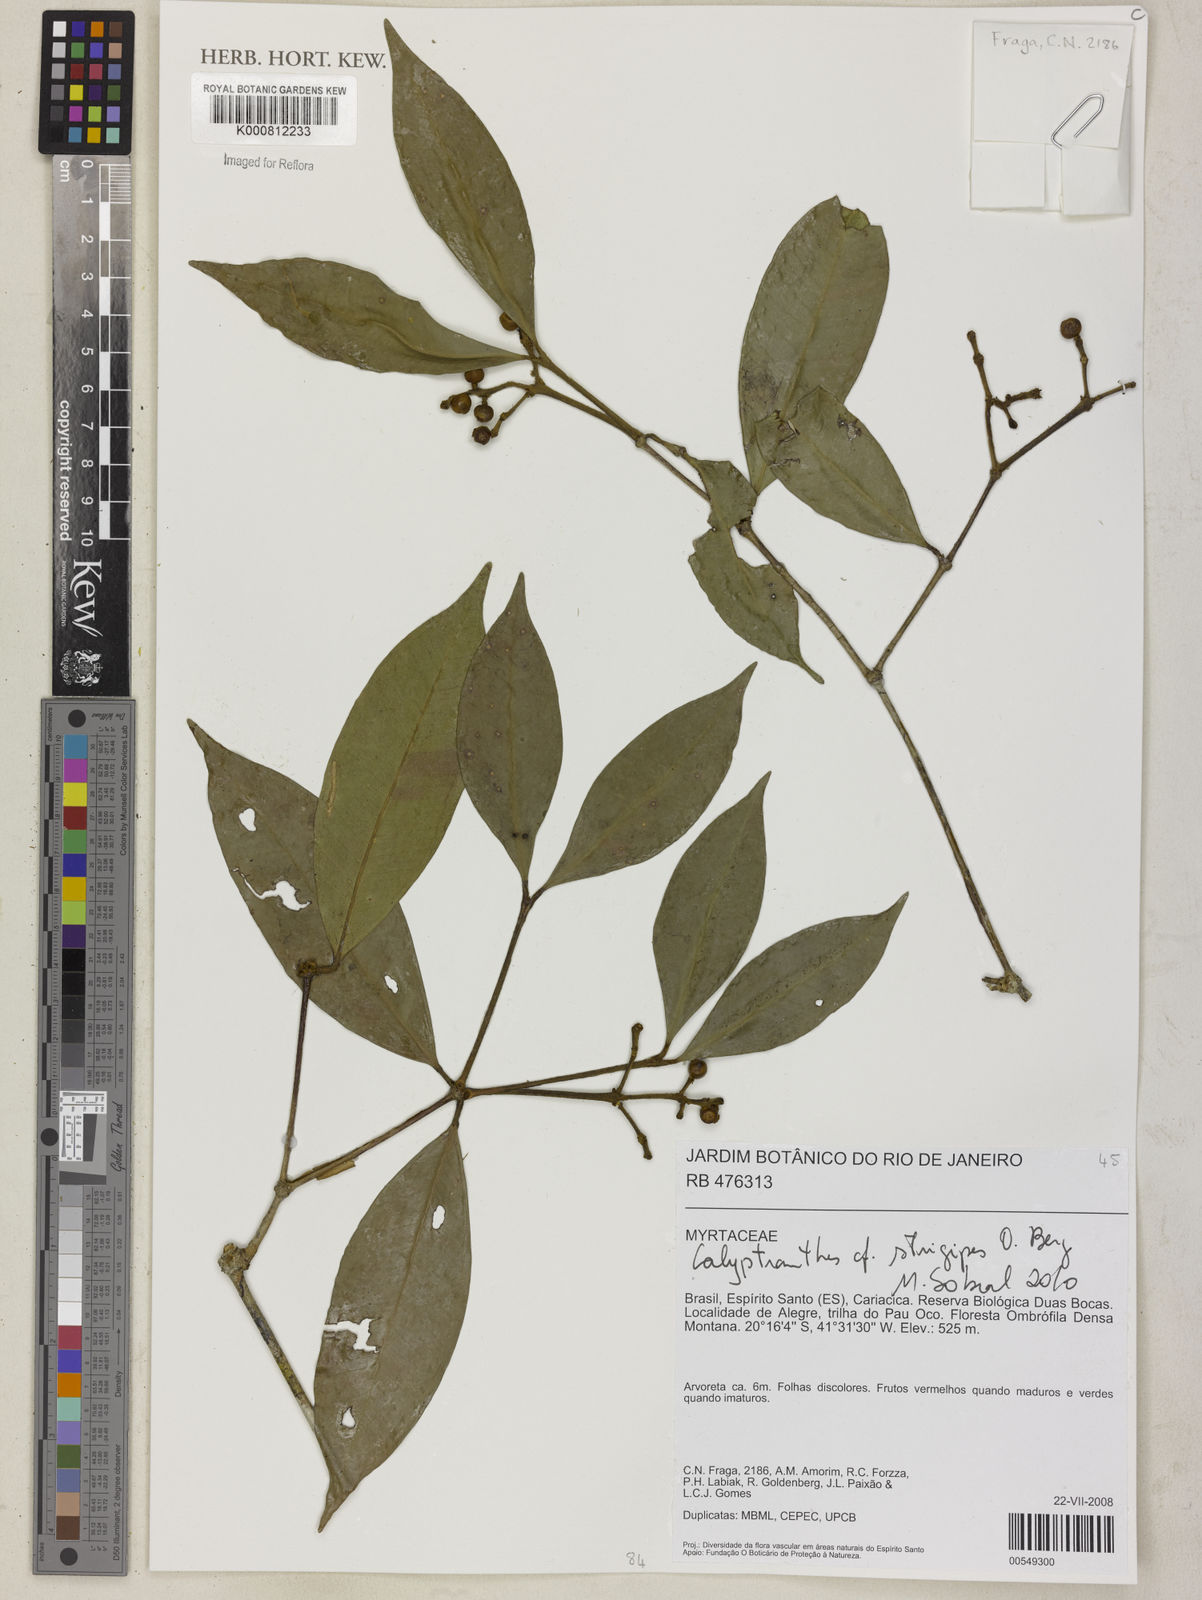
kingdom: Plantae
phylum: Tracheophyta
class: Magnoliopsida
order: Myrtales
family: Myrtaceae
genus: Myrcia
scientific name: Myrcia strigosa
